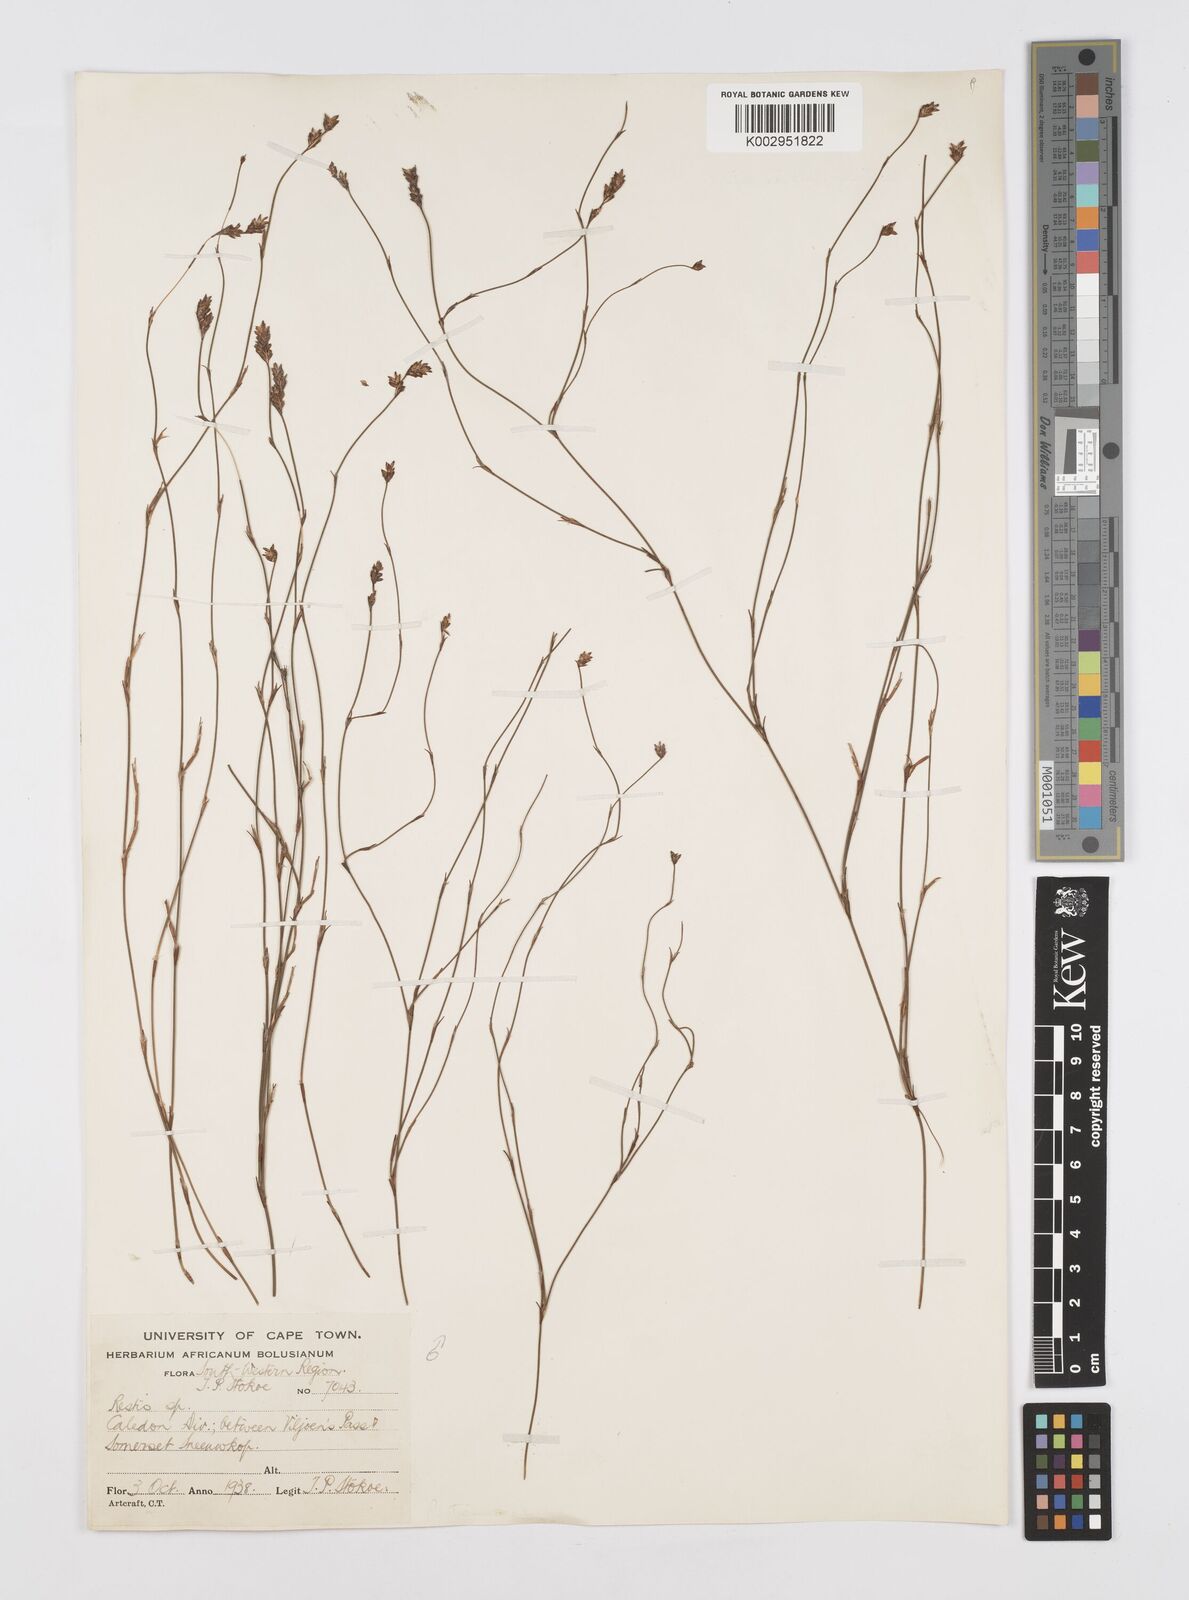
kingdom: Plantae
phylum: Tracheophyta
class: Liliopsida
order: Poales
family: Restionaceae
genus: Restio
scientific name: Restio
